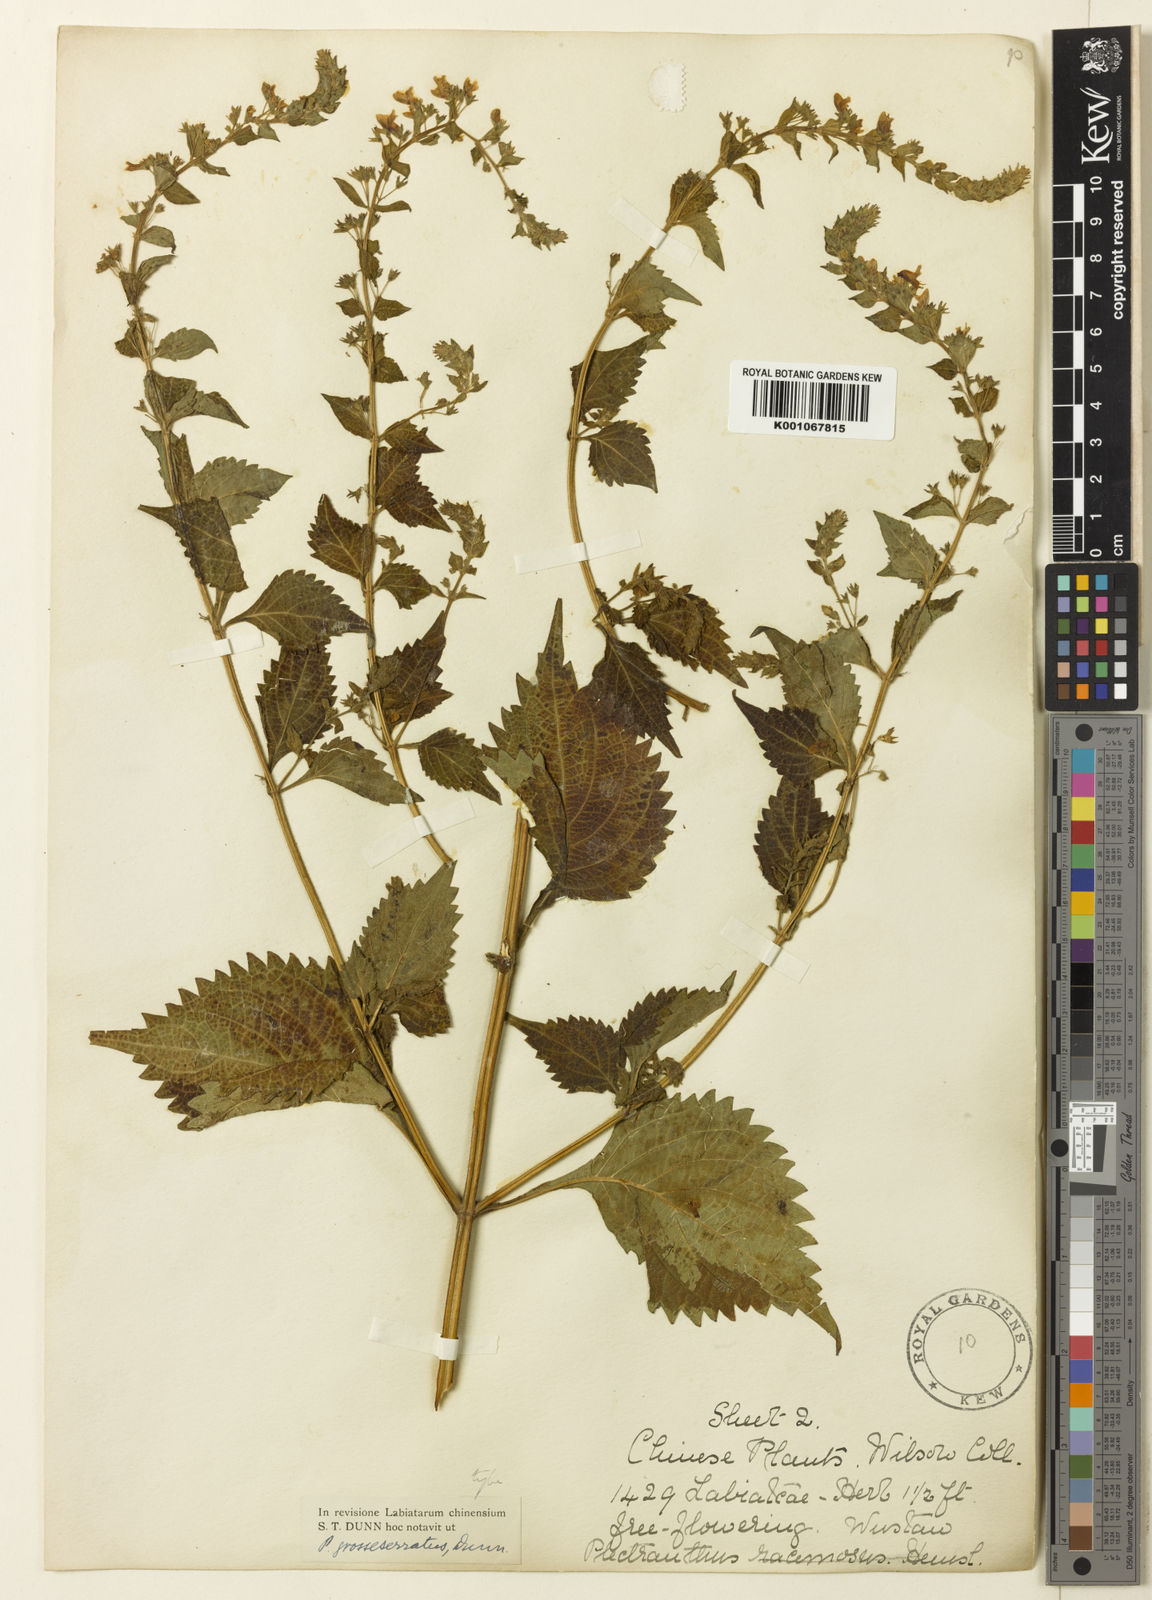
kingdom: Plantae
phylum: Tracheophyta
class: Magnoliopsida
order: Lamiales
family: Lamiaceae
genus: Isodon
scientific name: Isodon
